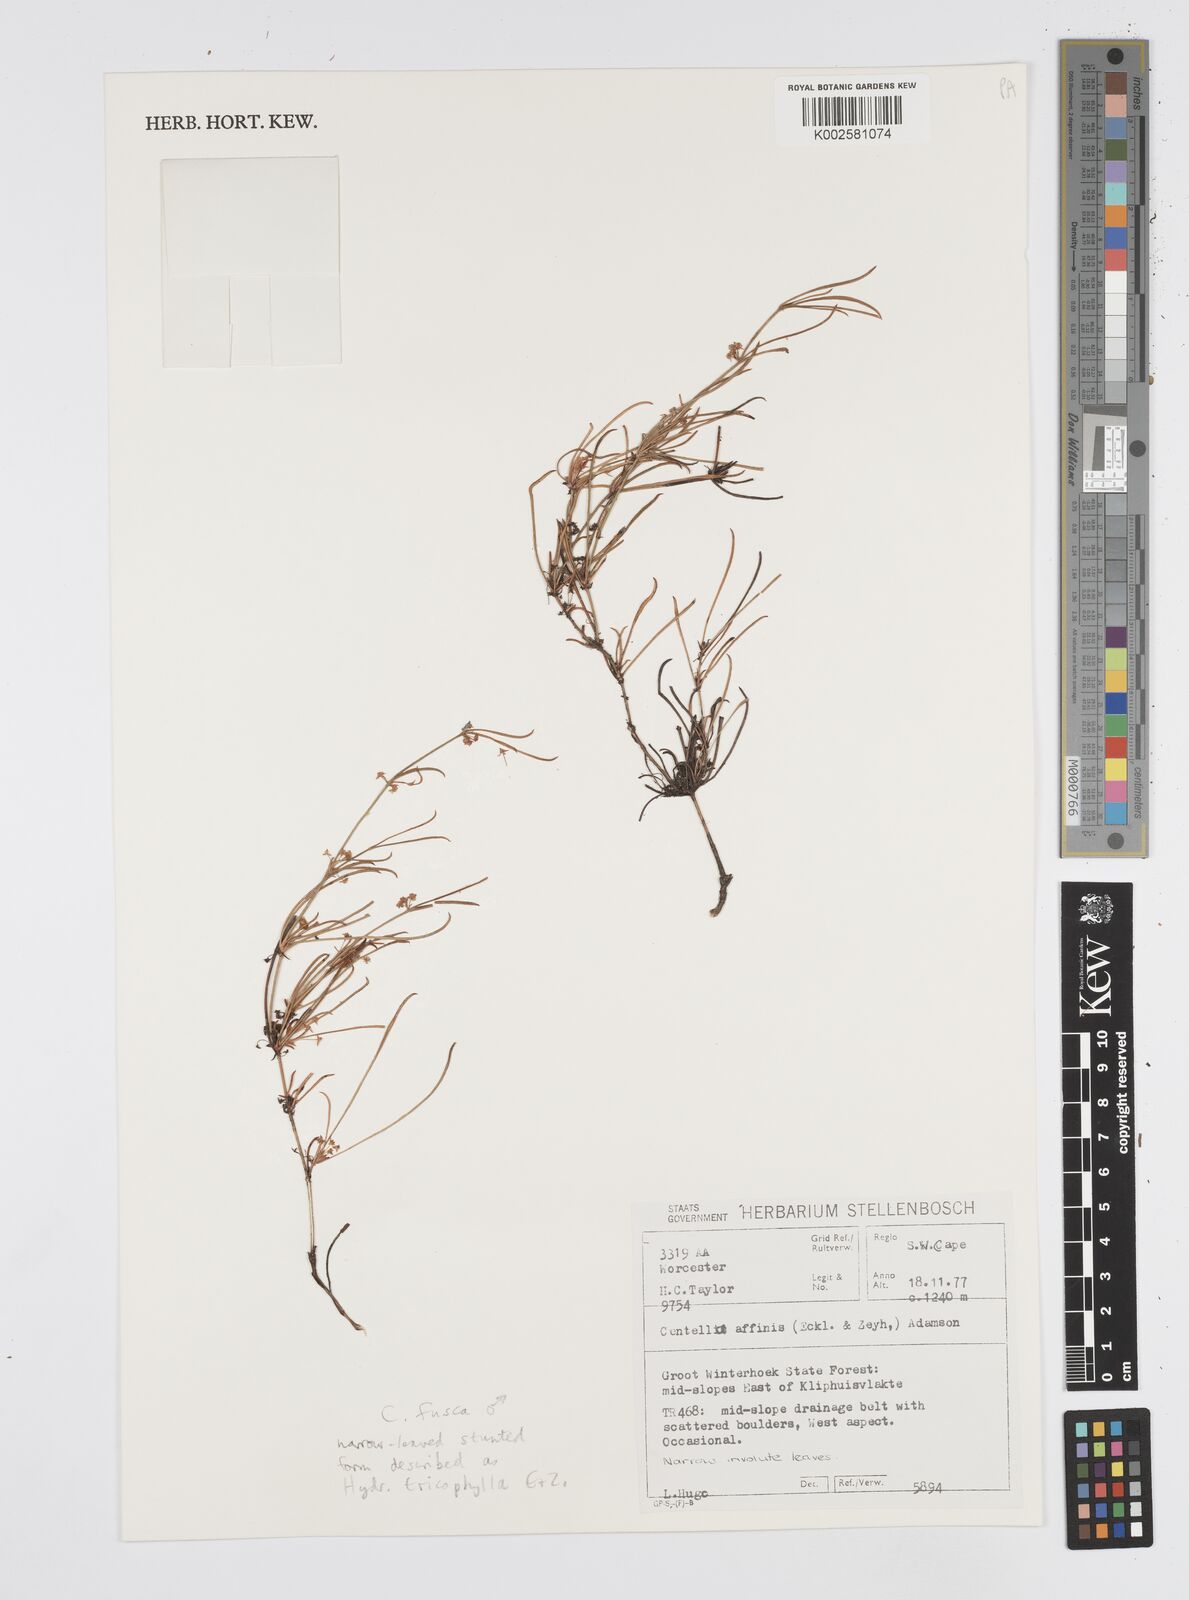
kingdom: Plantae
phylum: Tracheophyta
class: Magnoliopsida
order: Apiales
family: Apiaceae
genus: Centella
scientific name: Centella affinis
